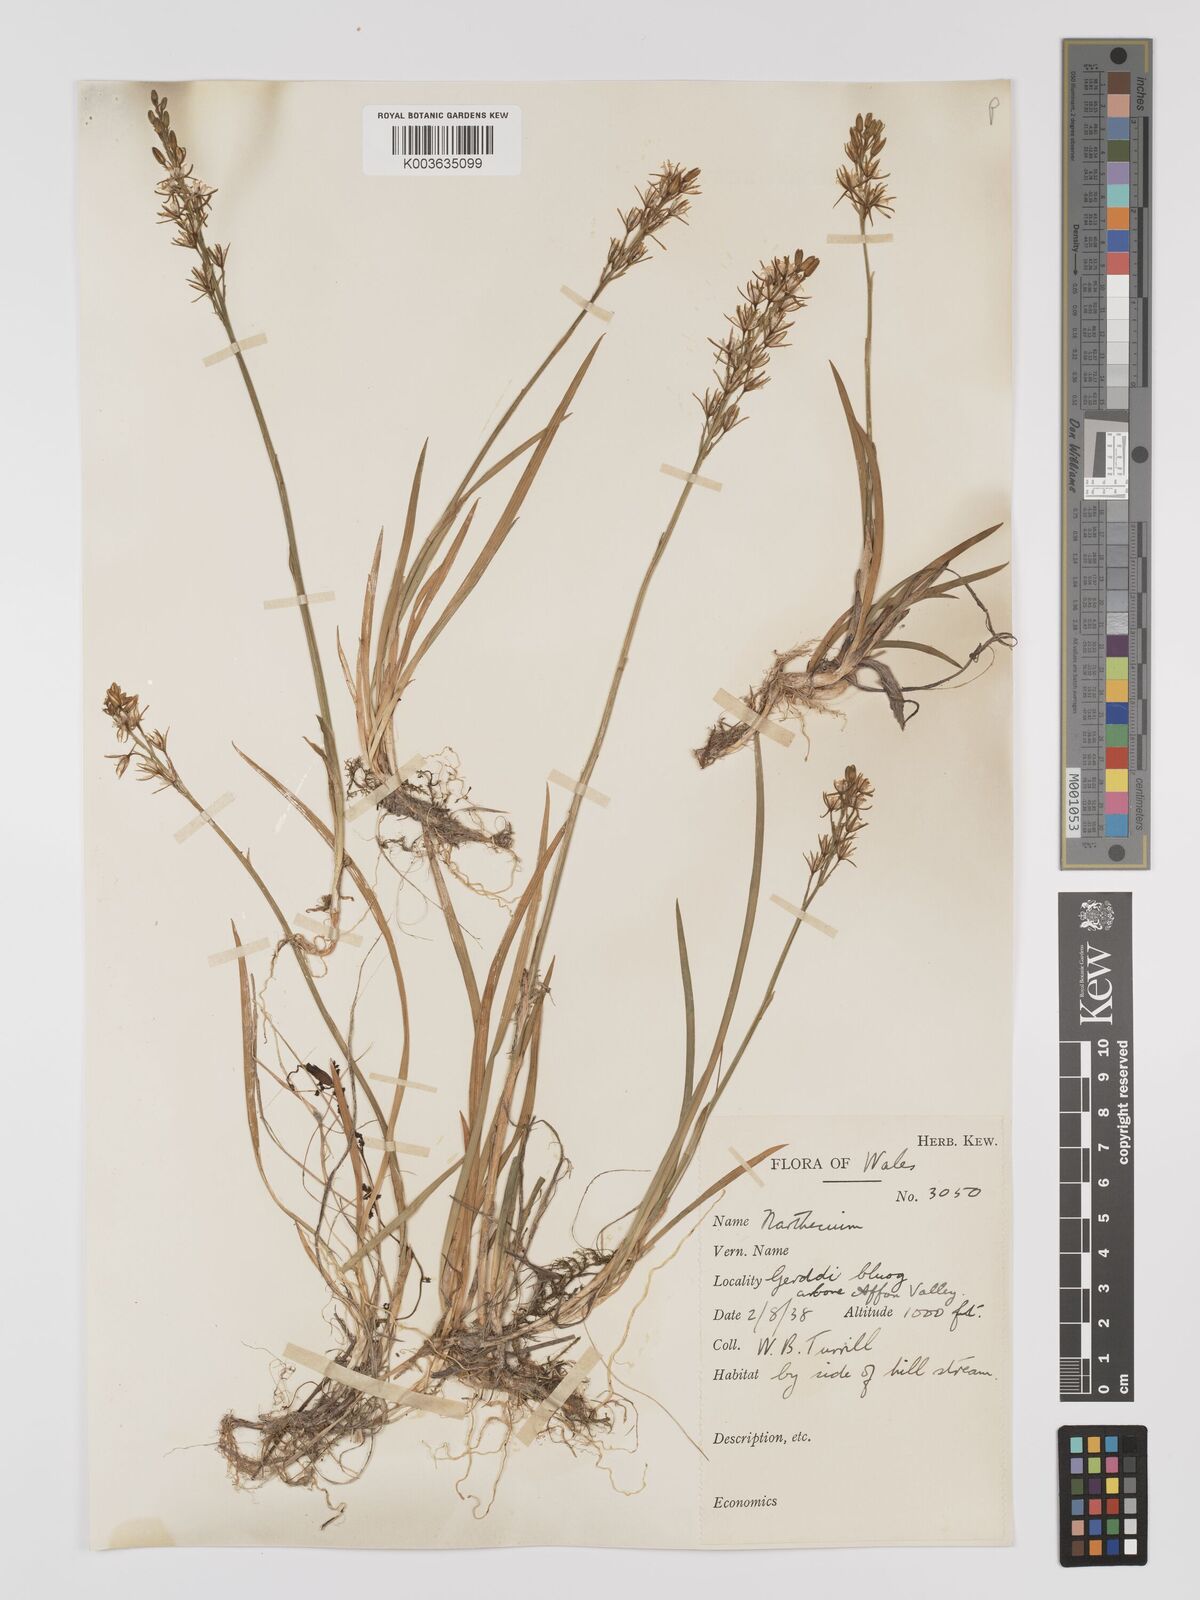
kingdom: Plantae
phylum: Tracheophyta
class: Liliopsida
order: Dioscoreales
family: Nartheciaceae
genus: Narthecium
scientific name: Narthecium
